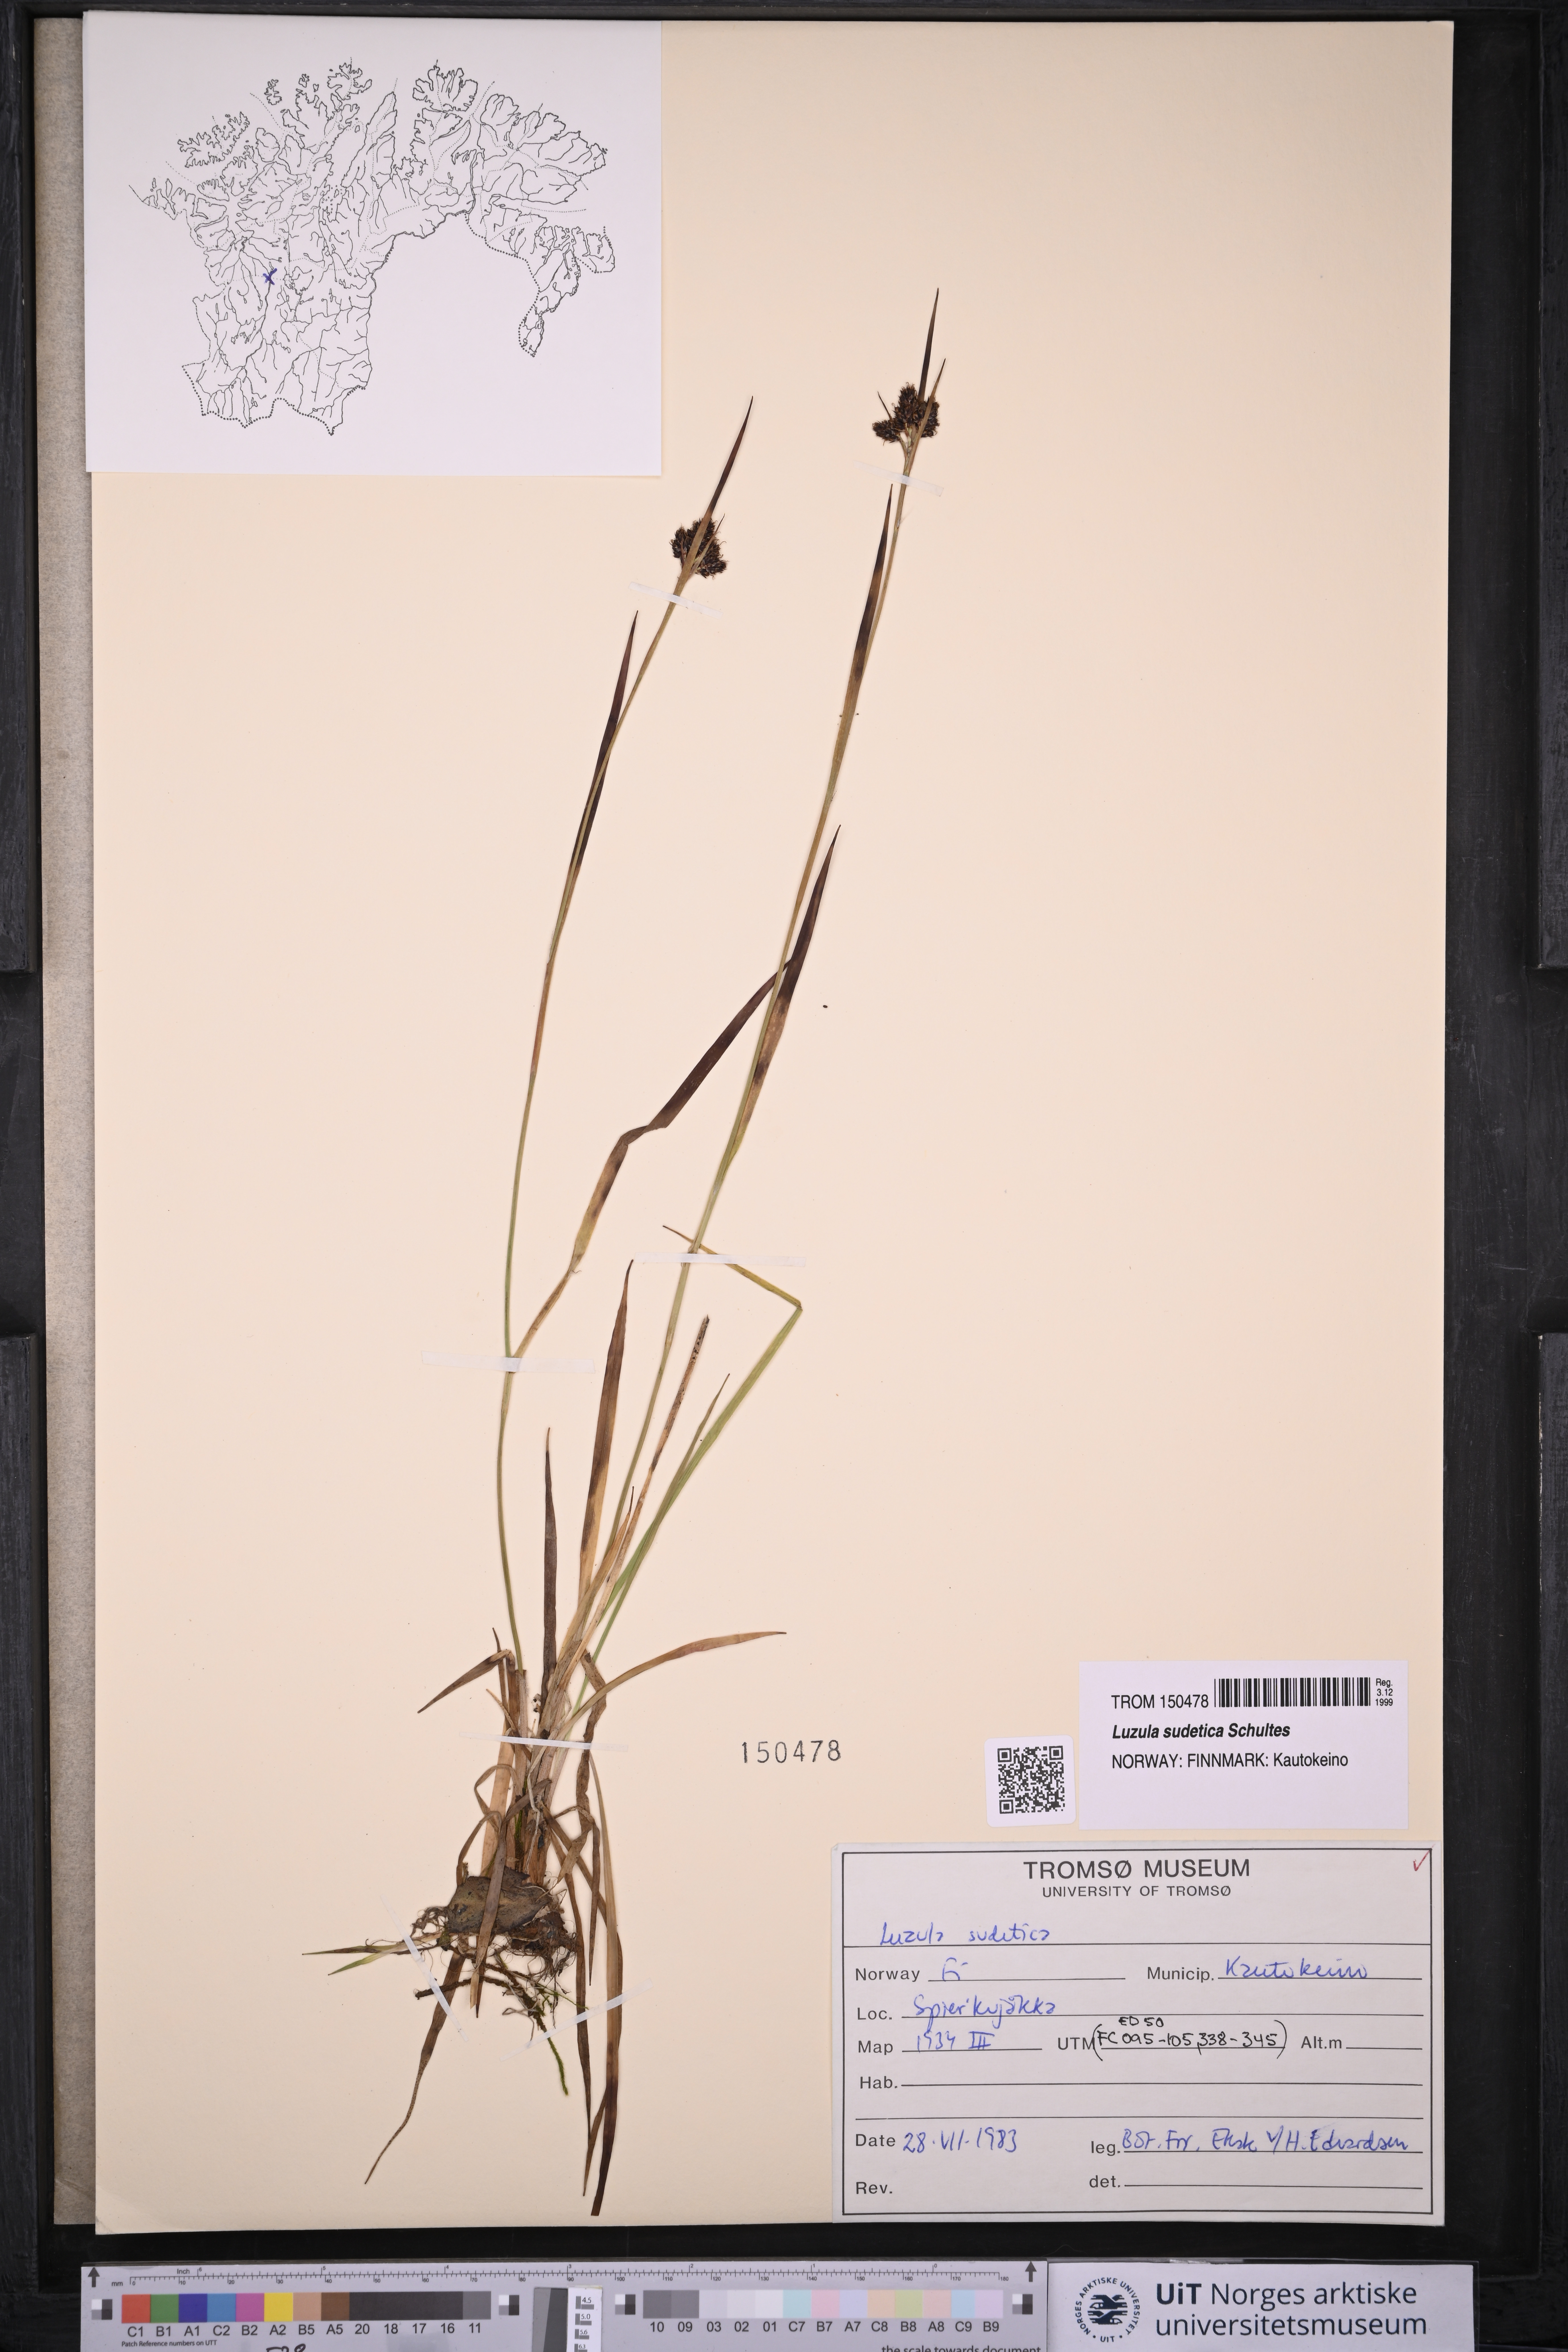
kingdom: Plantae
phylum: Tracheophyta
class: Liliopsida
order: Poales
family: Juncaceae
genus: Luzula
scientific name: Luzula sudetica
